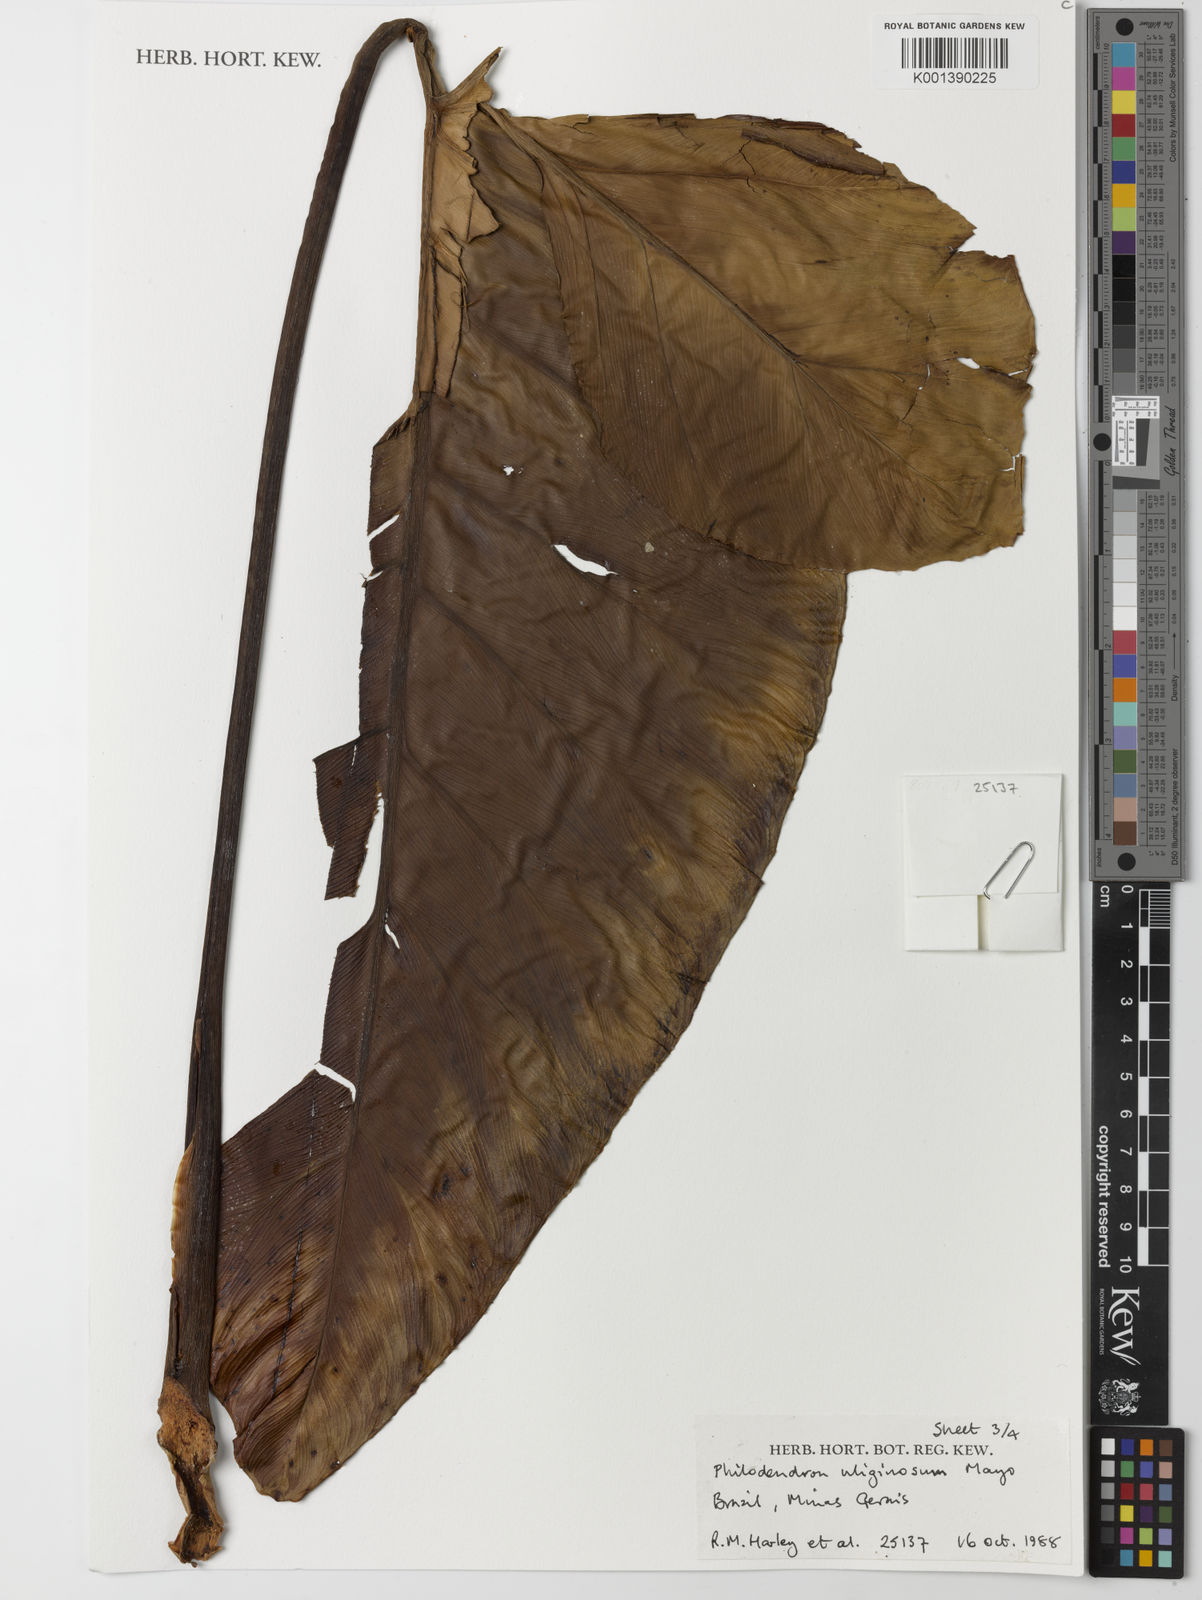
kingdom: Plantae
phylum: Tracheophyta
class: Liliopsida
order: Alismatales
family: Araceae
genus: Thaumatophyllum
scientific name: Thaumatophyllum uliginosum
